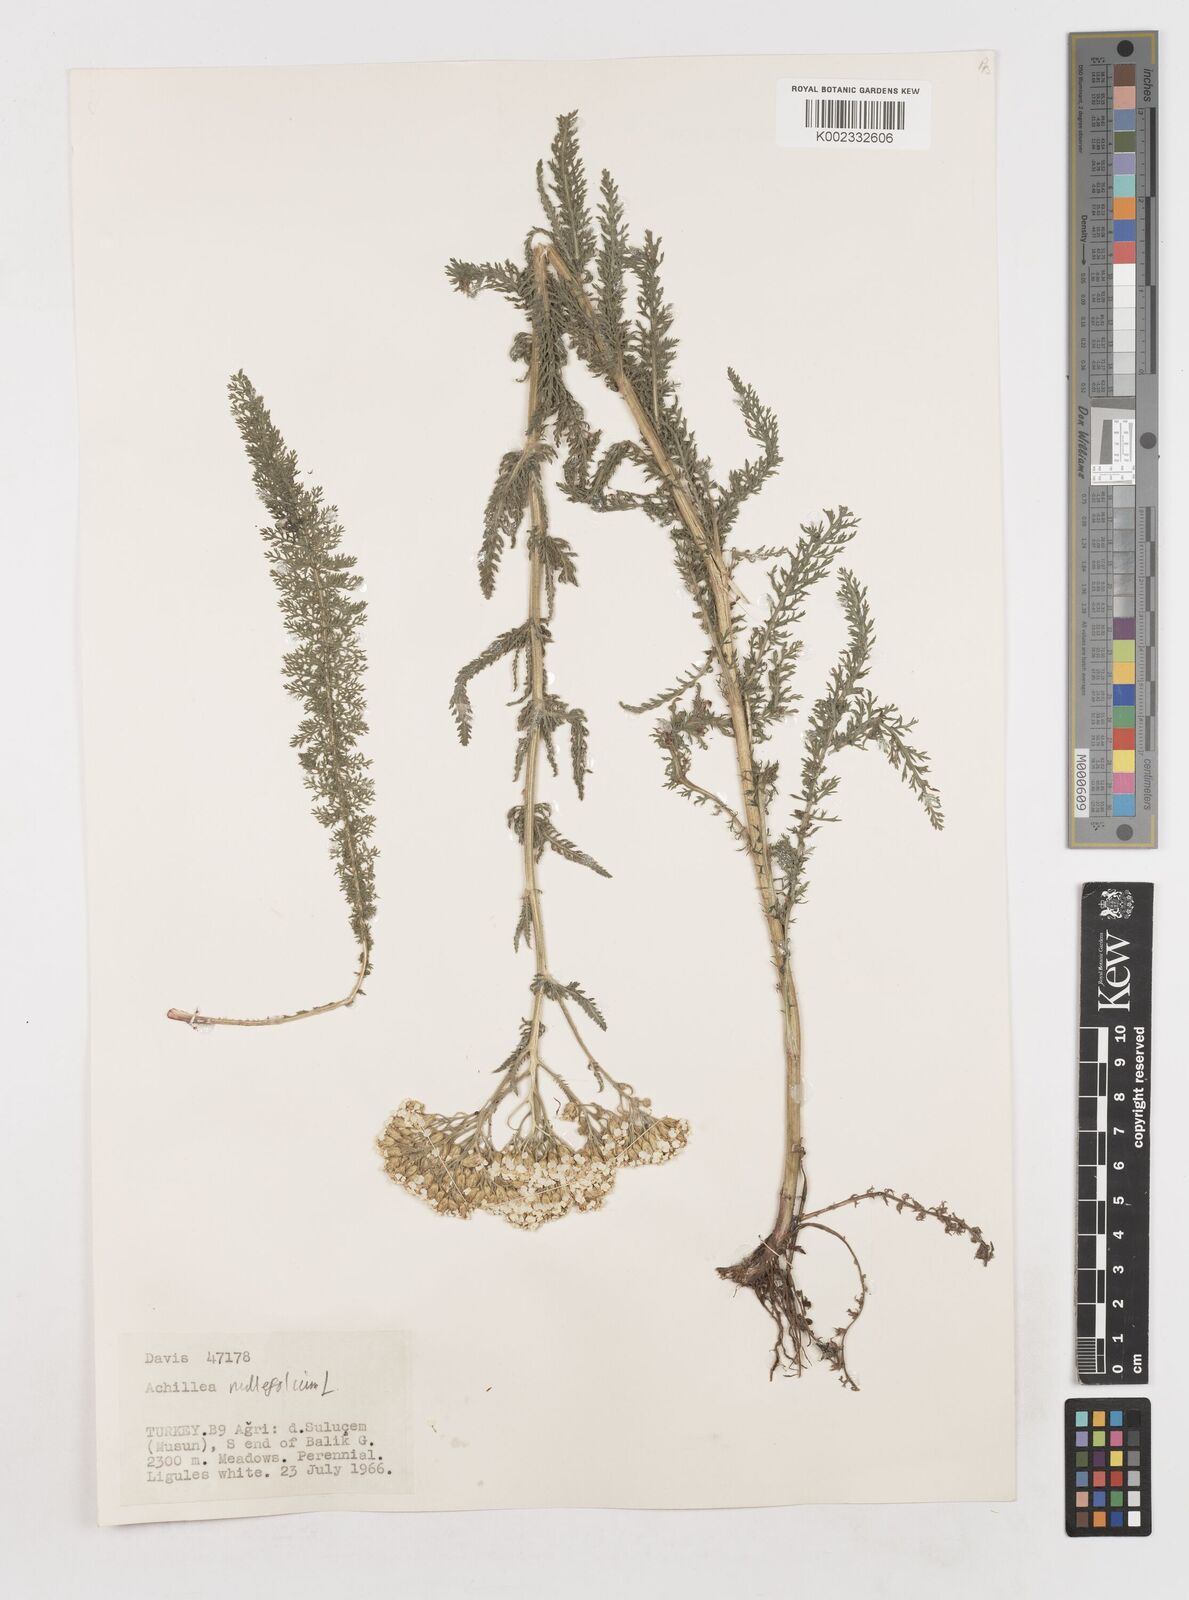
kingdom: Plantae
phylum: Tracheophyta
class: Magnoliopsida
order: Asterales
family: Asteraceae
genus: Achillea
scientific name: Achillea millefolium
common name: Yarrow
